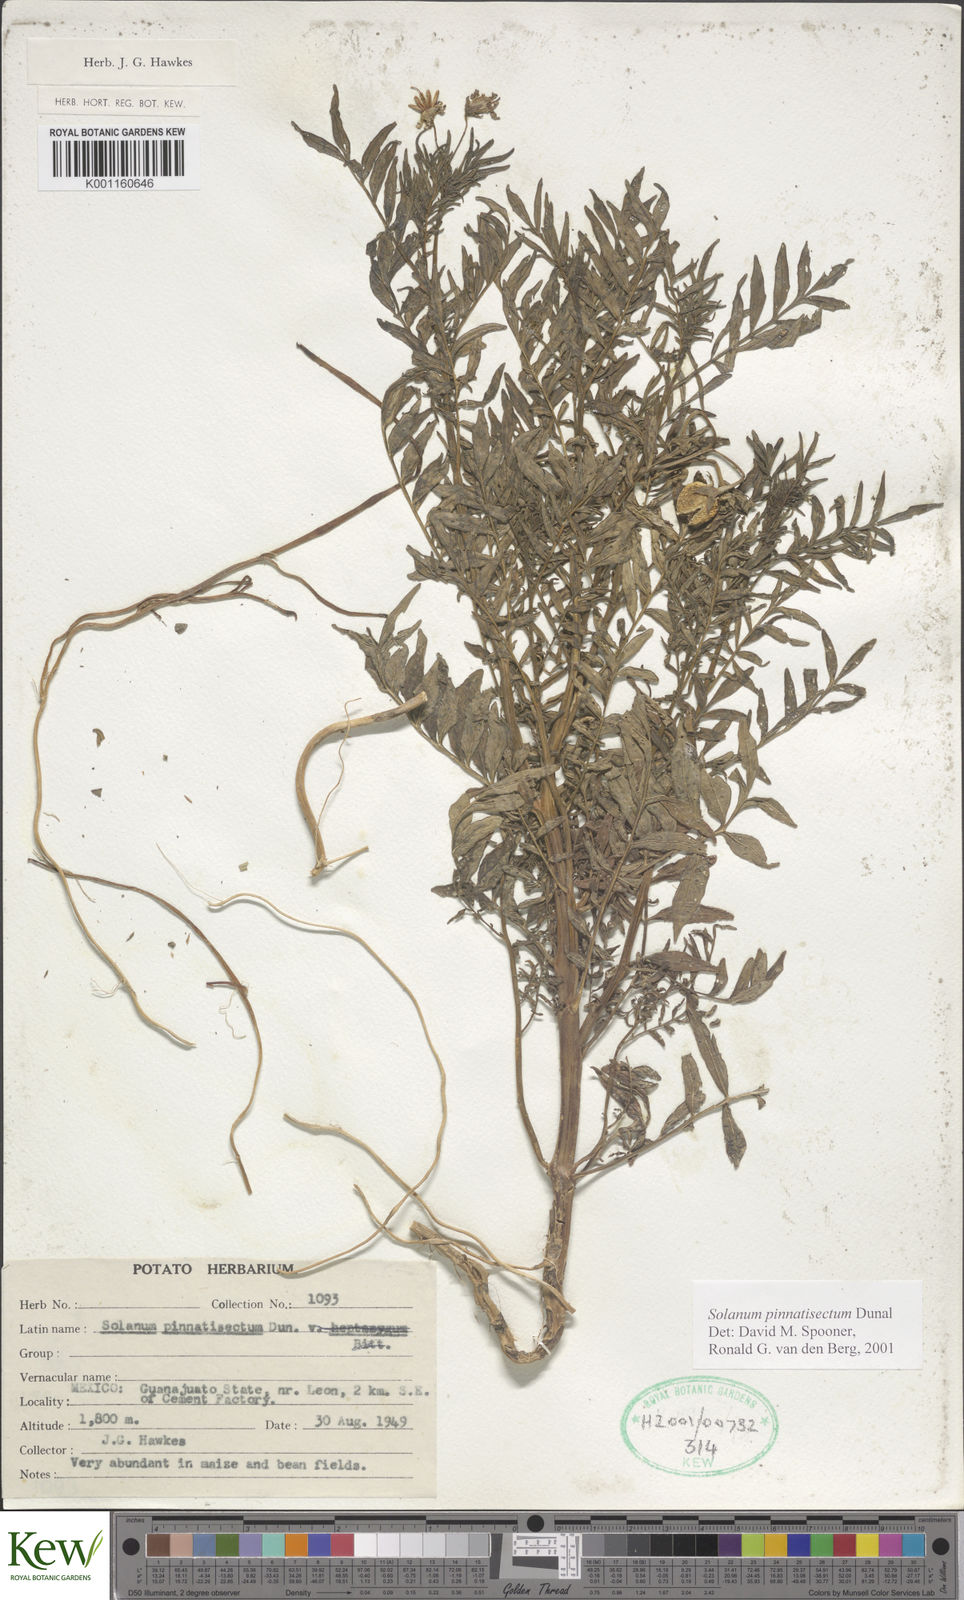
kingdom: Plantae
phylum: Tracheophyta
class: Magnoliopsida
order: Solanales
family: Solanaceae
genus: Solanum
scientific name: Solanum pinnatisectum
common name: Tansyleaf nightshade
